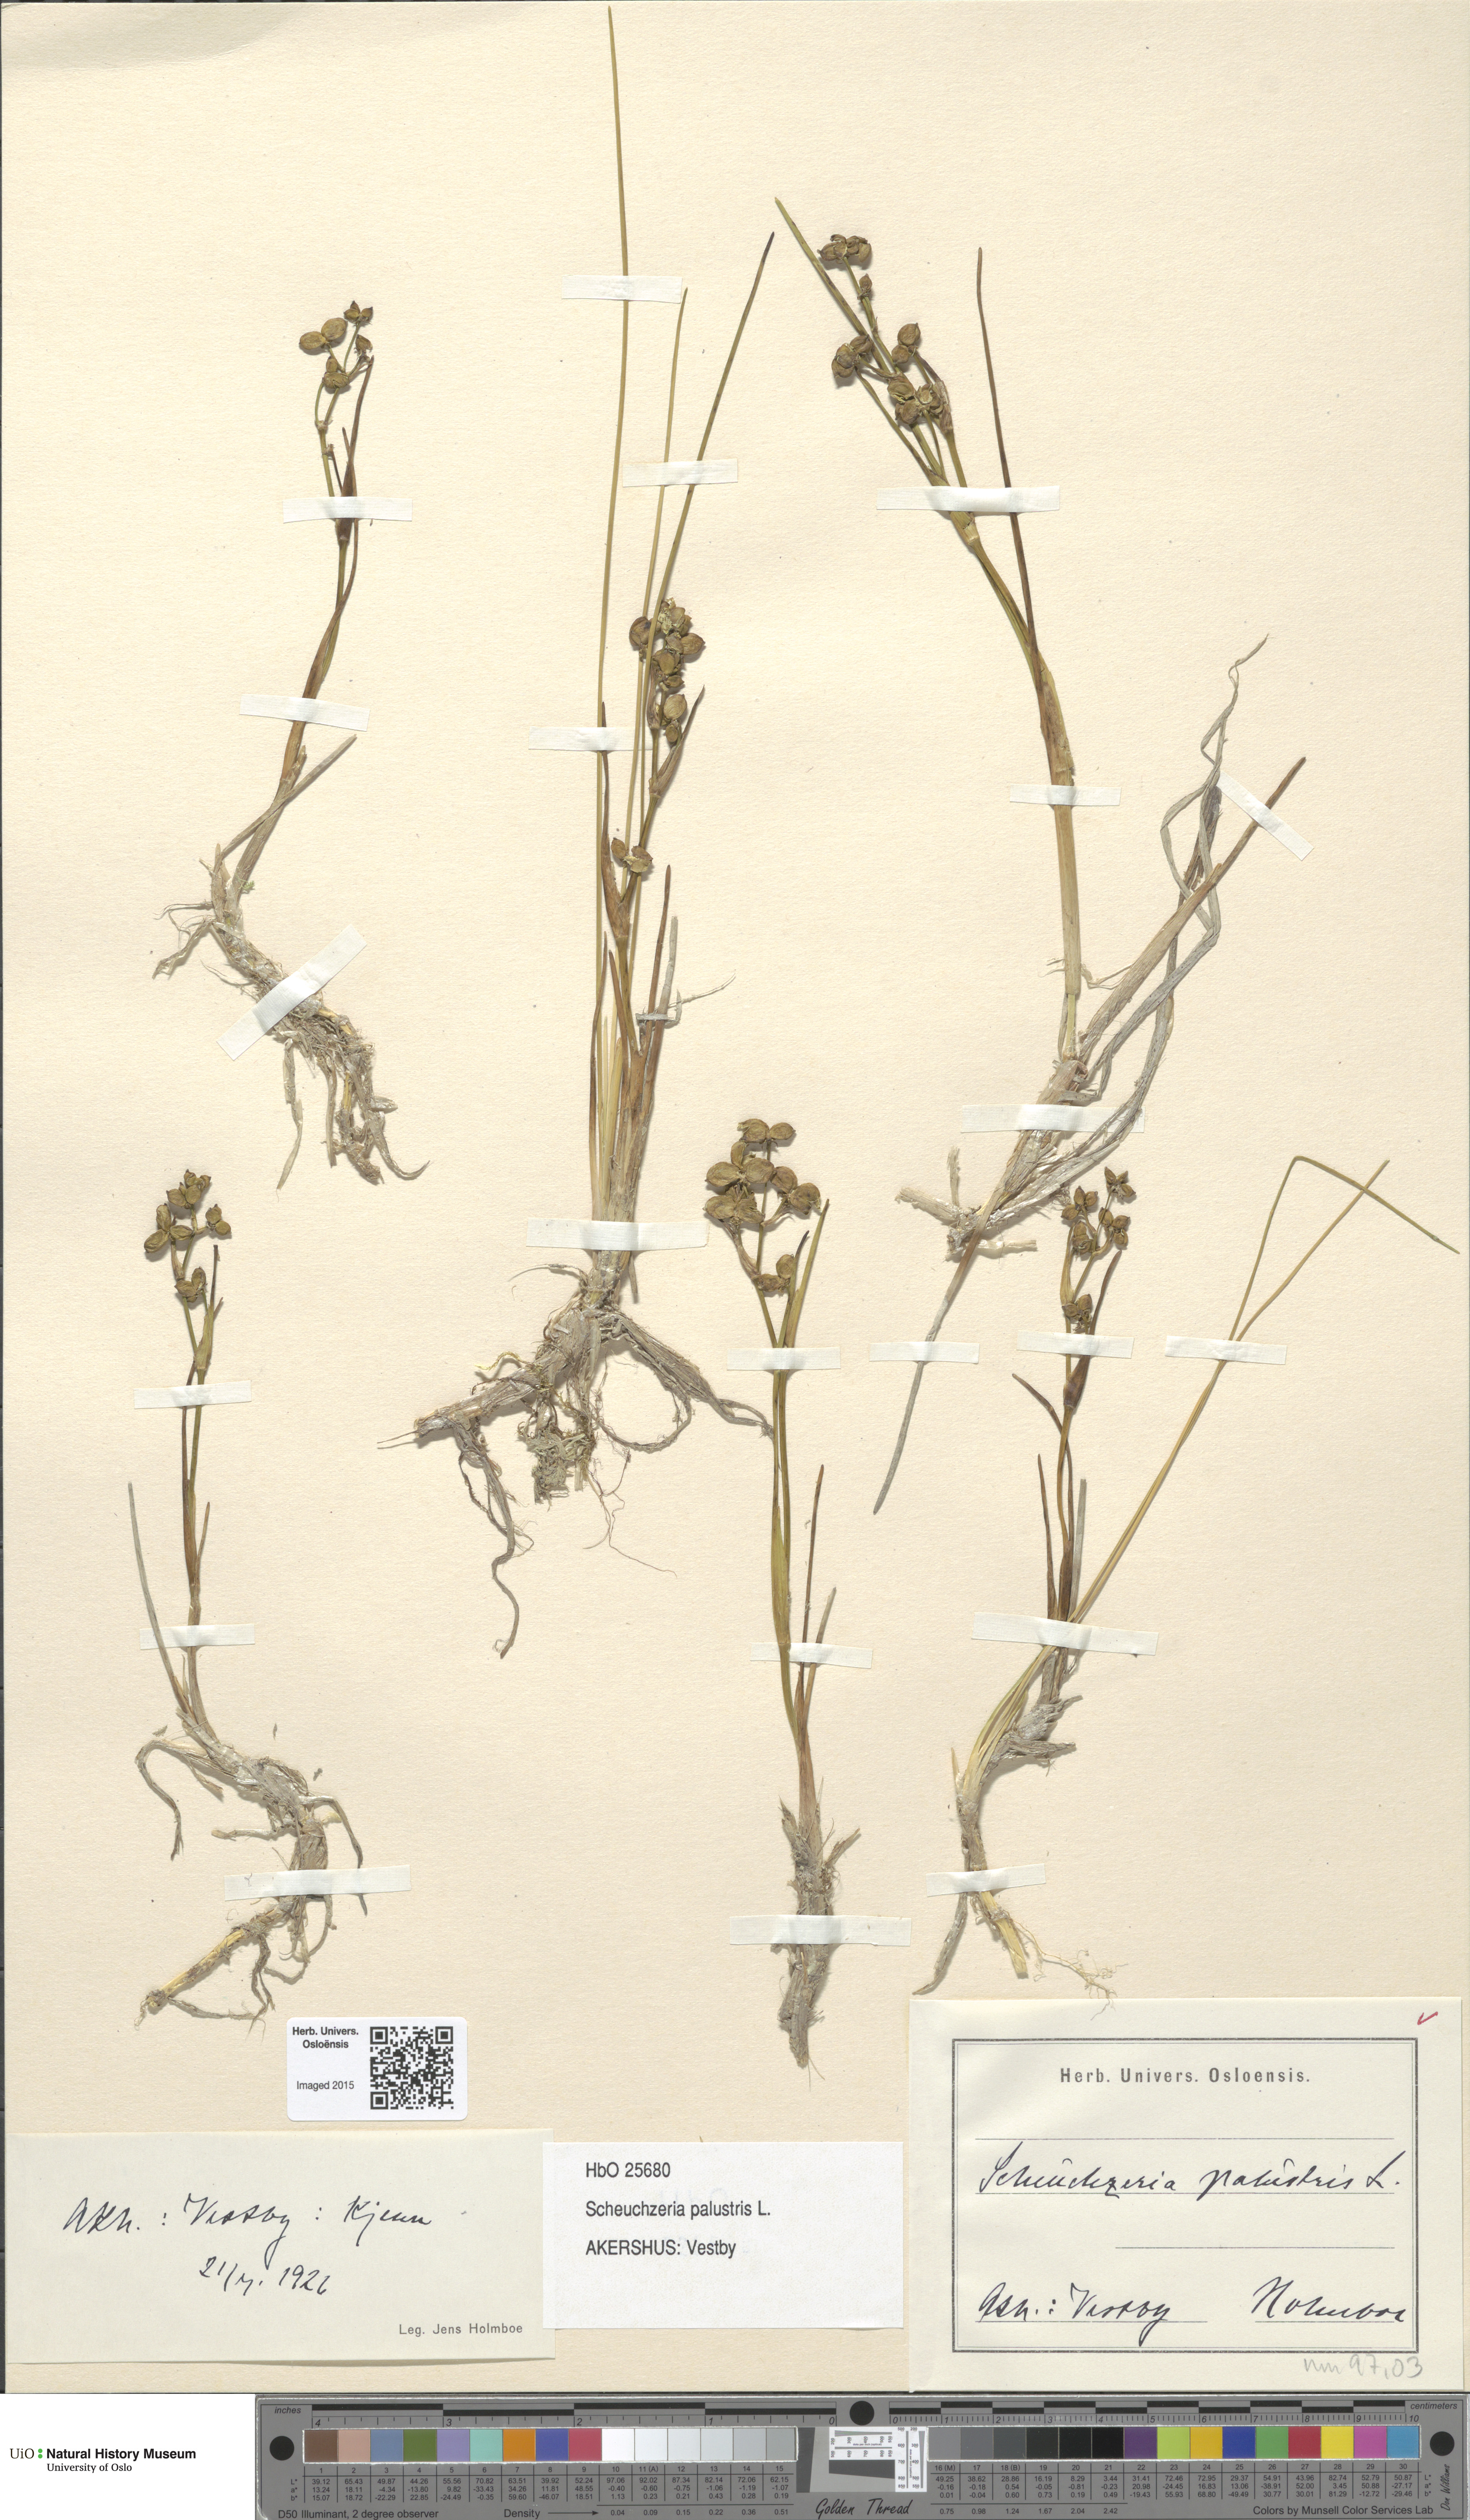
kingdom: Plantae
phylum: Tracheophyta
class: Liliopsida
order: Alismatales
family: Scheuchzeriaceae
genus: Scheuchzeria
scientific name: Scheuchzeria palustris
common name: Rannoch-rush
